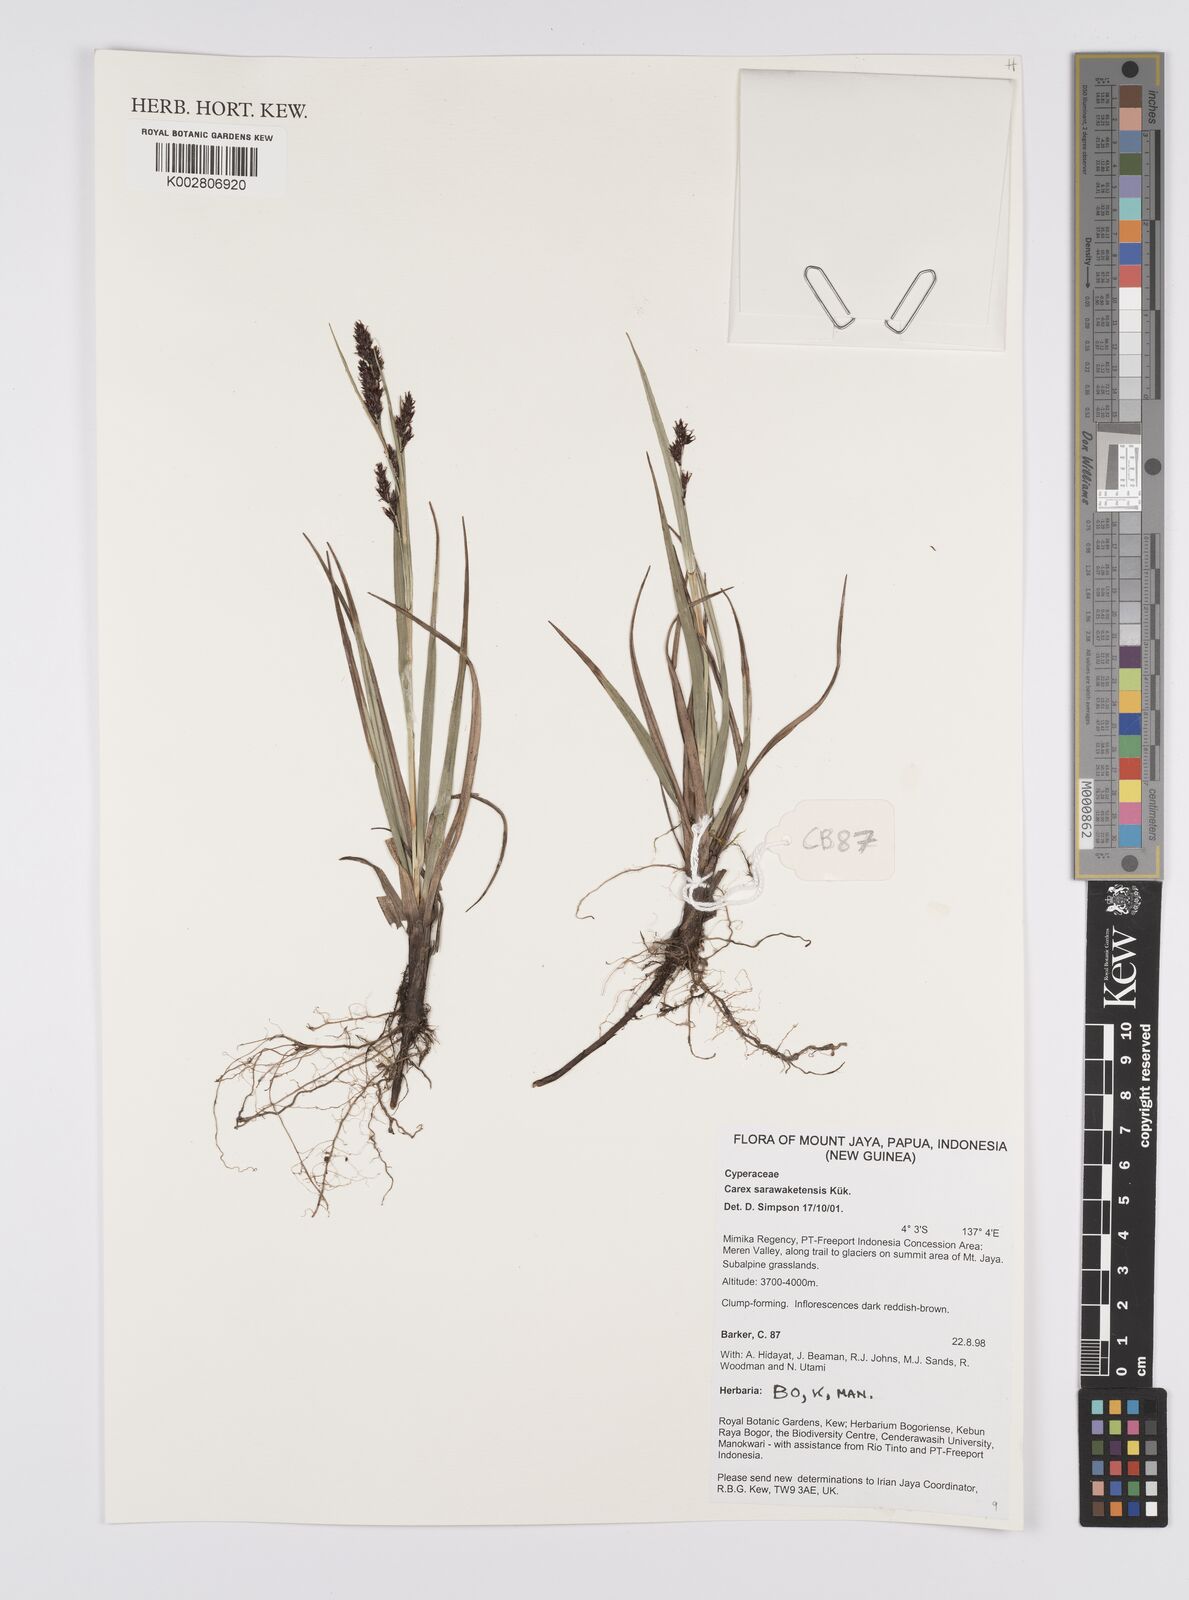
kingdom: Plantae
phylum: Tracheophyta
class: Liliopsida
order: Poales
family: Cyperaceae
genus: Carex
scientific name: Carex sarawaketensis
